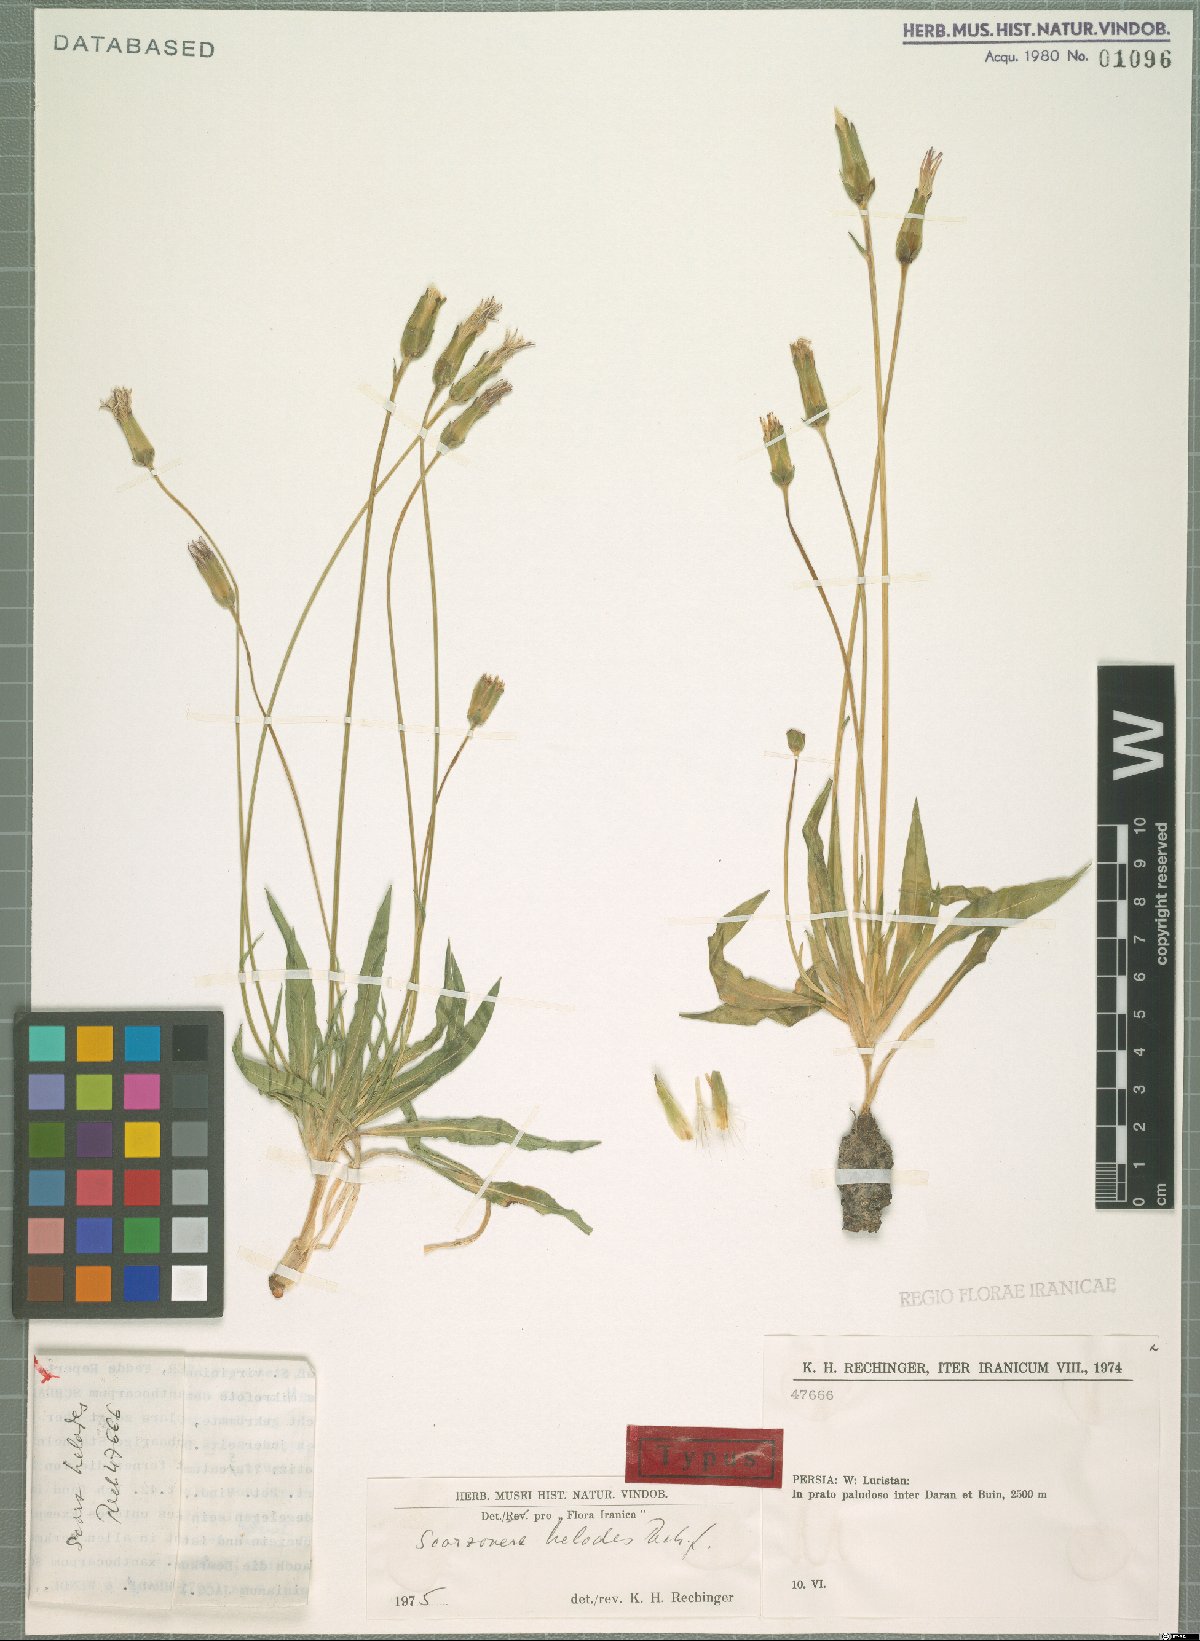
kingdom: Plantae
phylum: Tracheophyta
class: Magnoliopsida
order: Asterales
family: Asteraceae
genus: Scorzonera
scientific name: Scorzonera helodes
